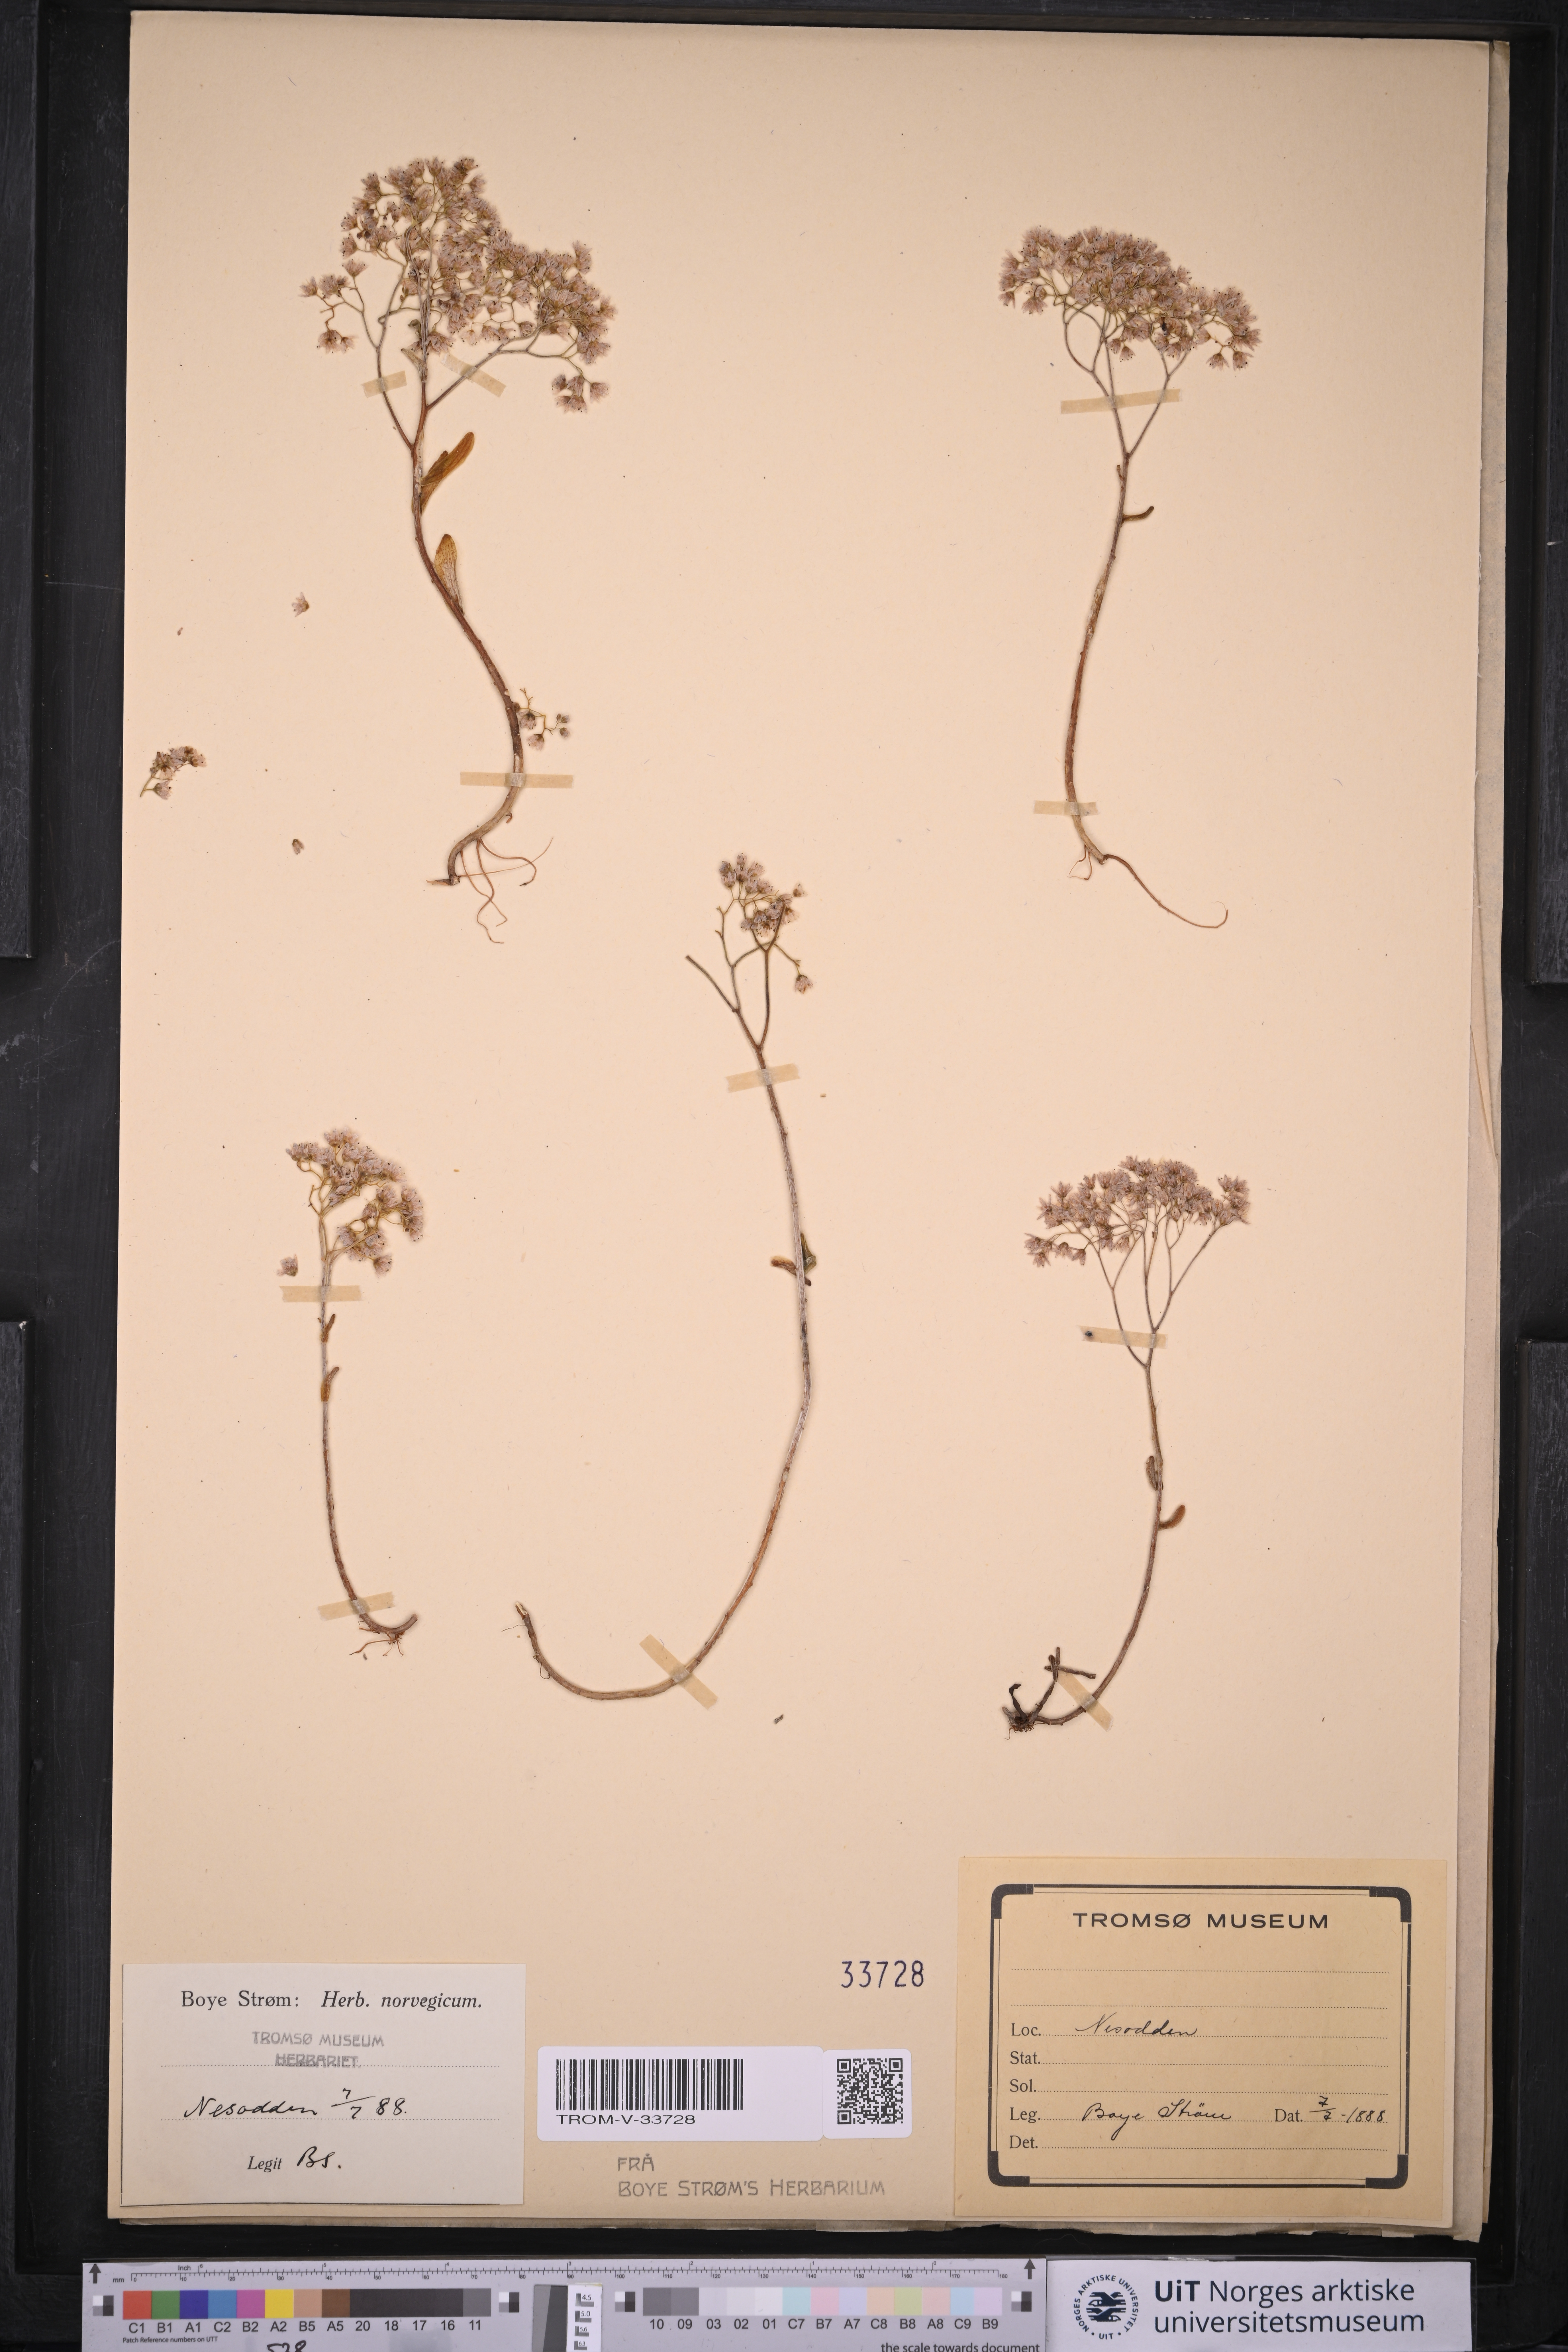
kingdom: Plantae
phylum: Tracheophyta
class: Magnoliopsida
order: Saxifragales
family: Crassulaceae
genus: Sedum
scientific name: Sedum album
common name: White stonecrop
